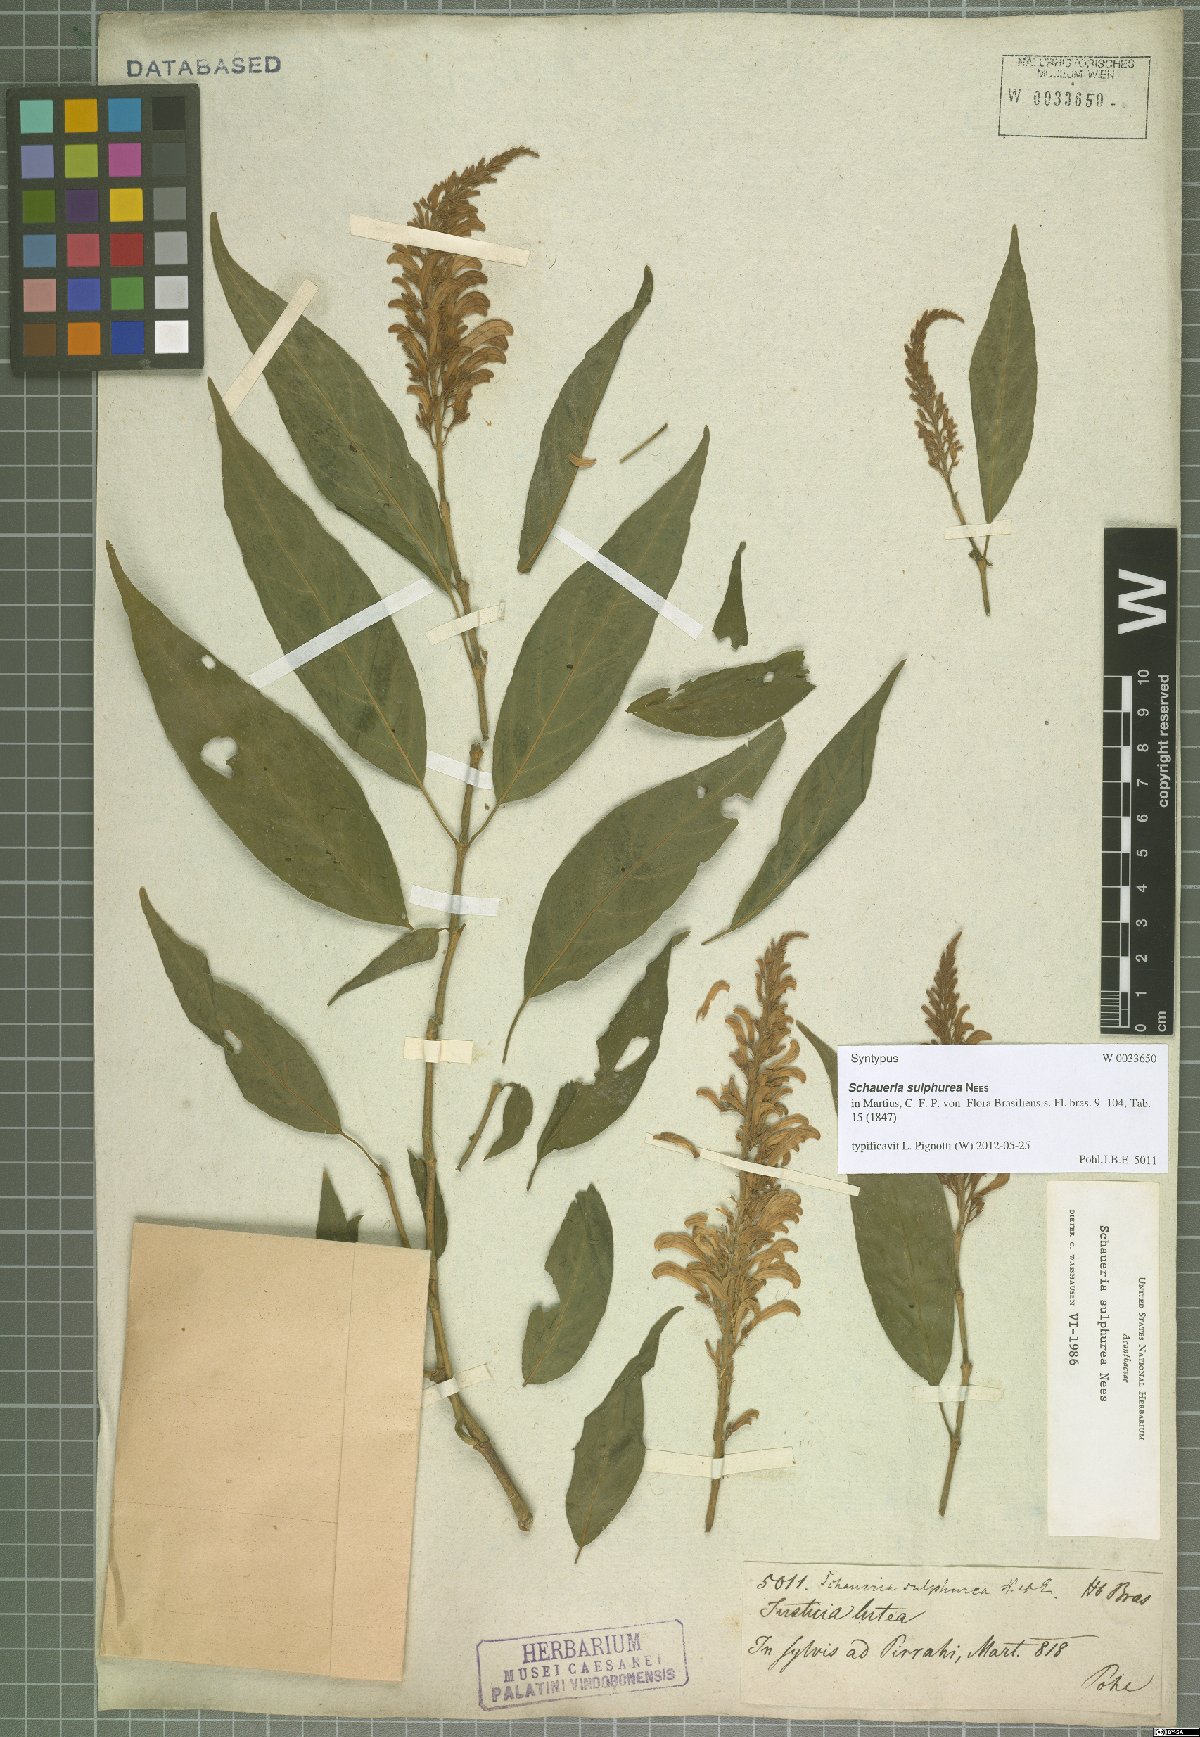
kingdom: Plantae
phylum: Tracheophyta
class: Magnoliopsida
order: Lamiales
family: Acanthaceae
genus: Schaueria
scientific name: Schaueria sulfurea
